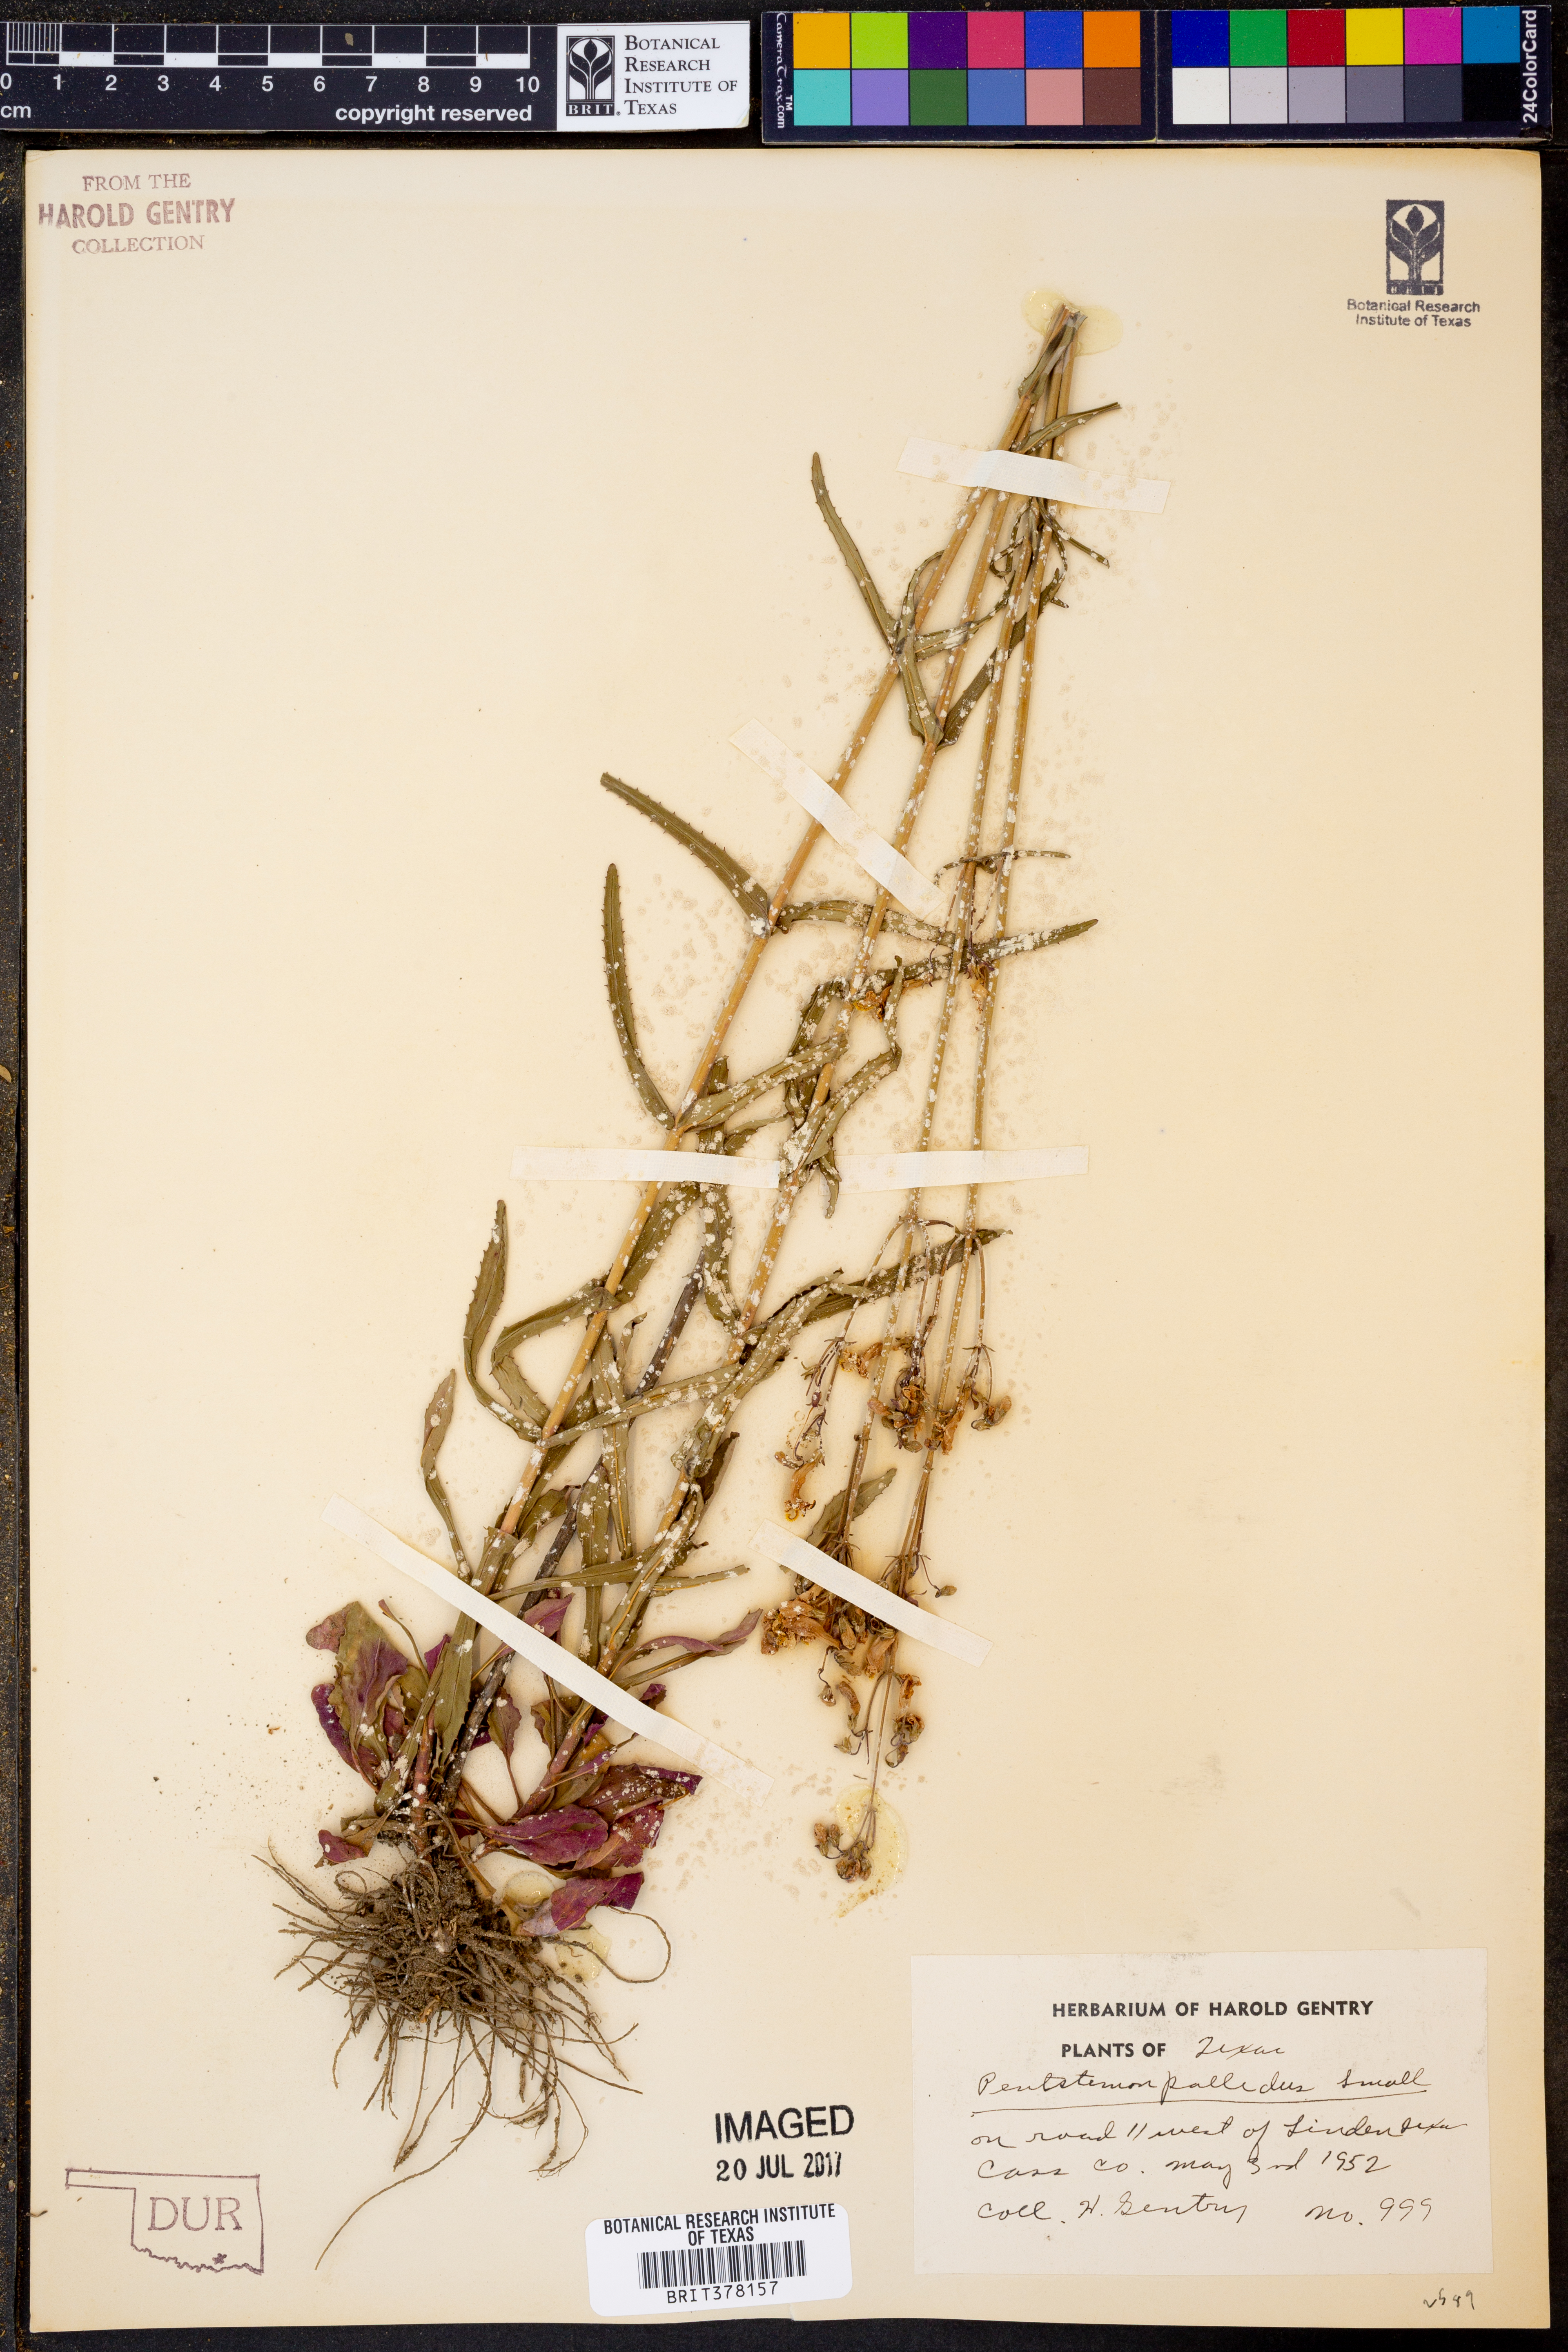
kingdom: Plantae
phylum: Tracheophyta
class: Magnoliopsida
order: Lamiales
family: Plantaginaceae
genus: Penstemon
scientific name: Penstemon pallidus
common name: Pale beardtongue
